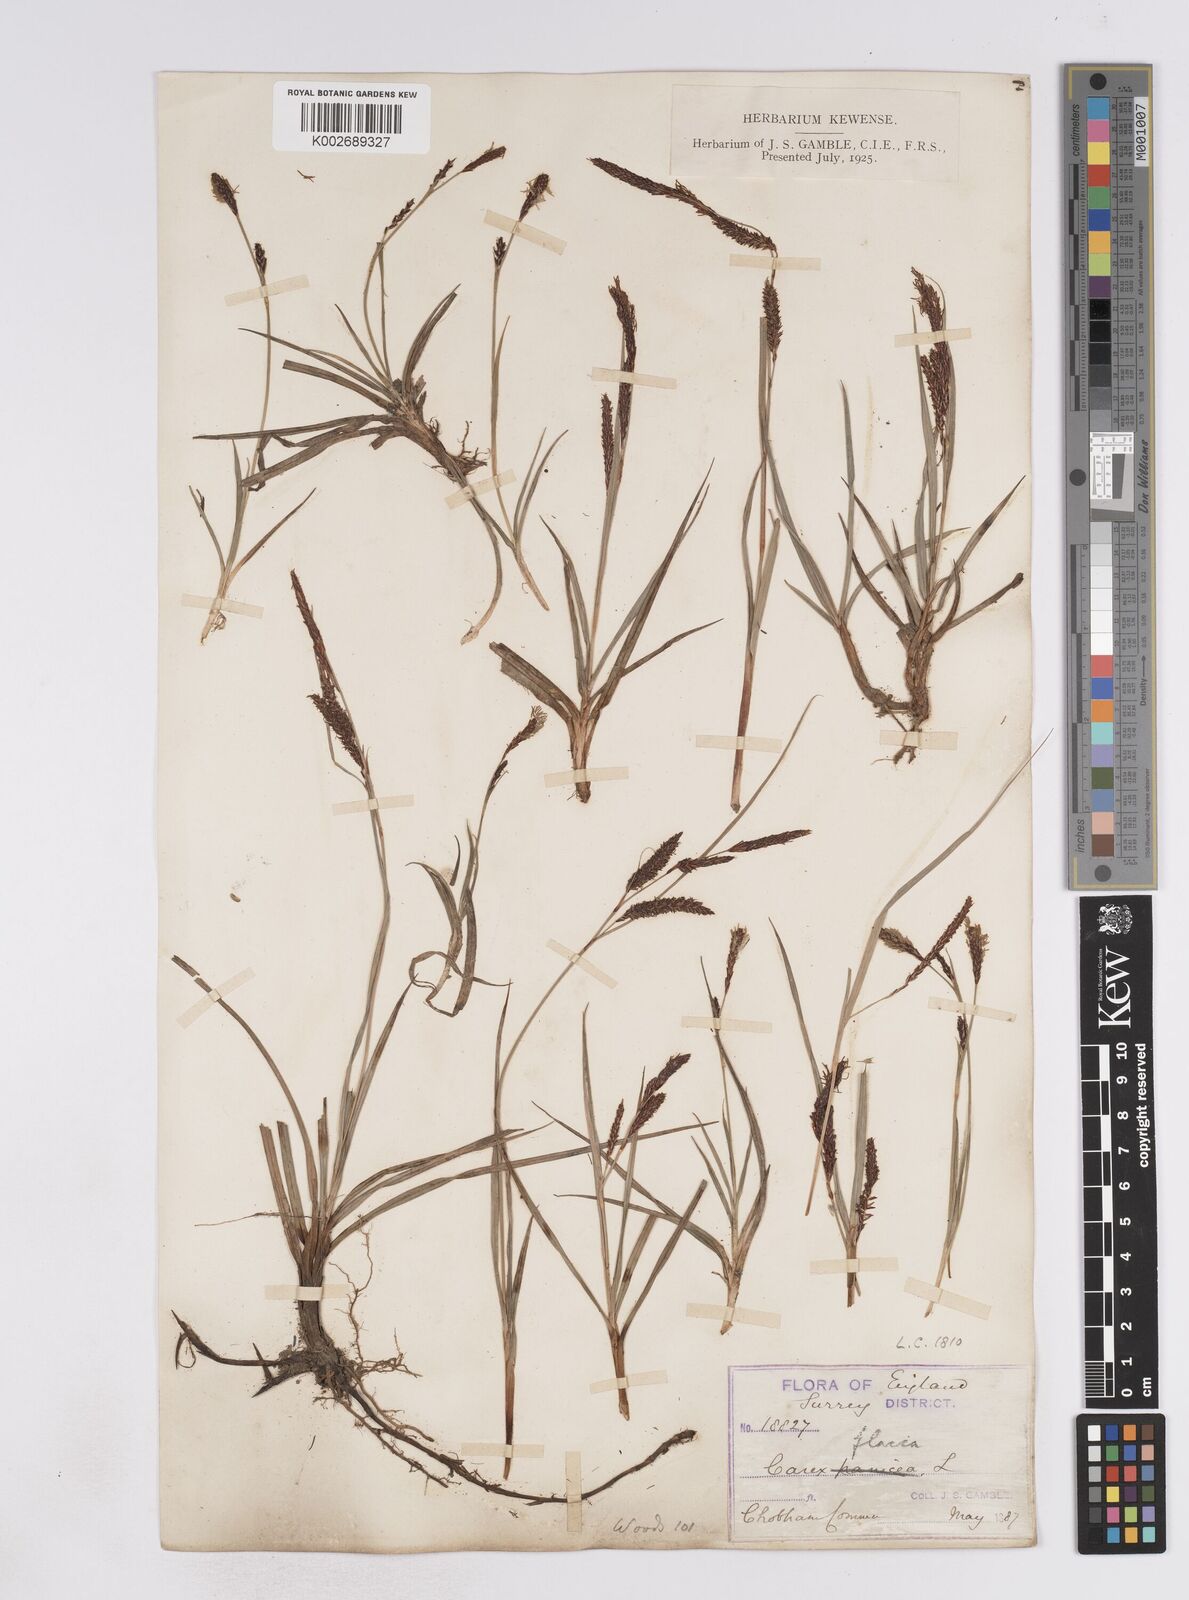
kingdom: Plantae
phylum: Tracheophyta
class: Liliopsida
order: Poales
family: Cyperaceae
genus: Carex
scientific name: Carex flacca
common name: Glaucous sedge
